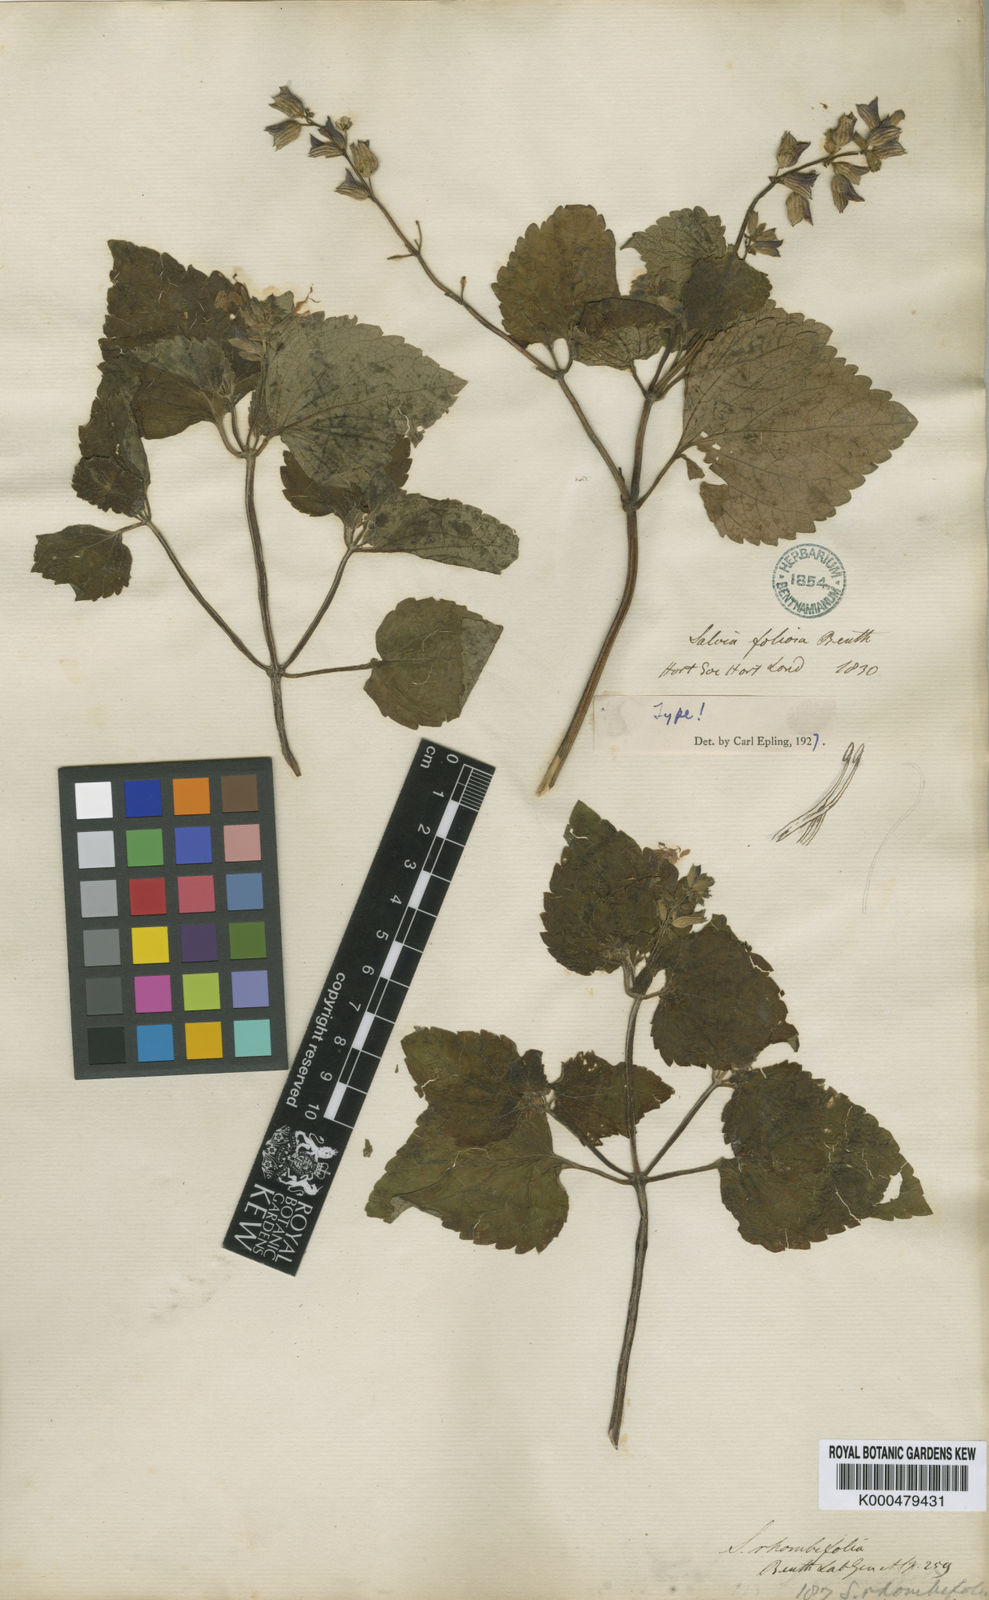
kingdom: Plantae
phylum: Tracheophyta
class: Magnoliopsida
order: Lamiales
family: Lamiaceae
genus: Salvia
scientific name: Salvia rhombifolia
